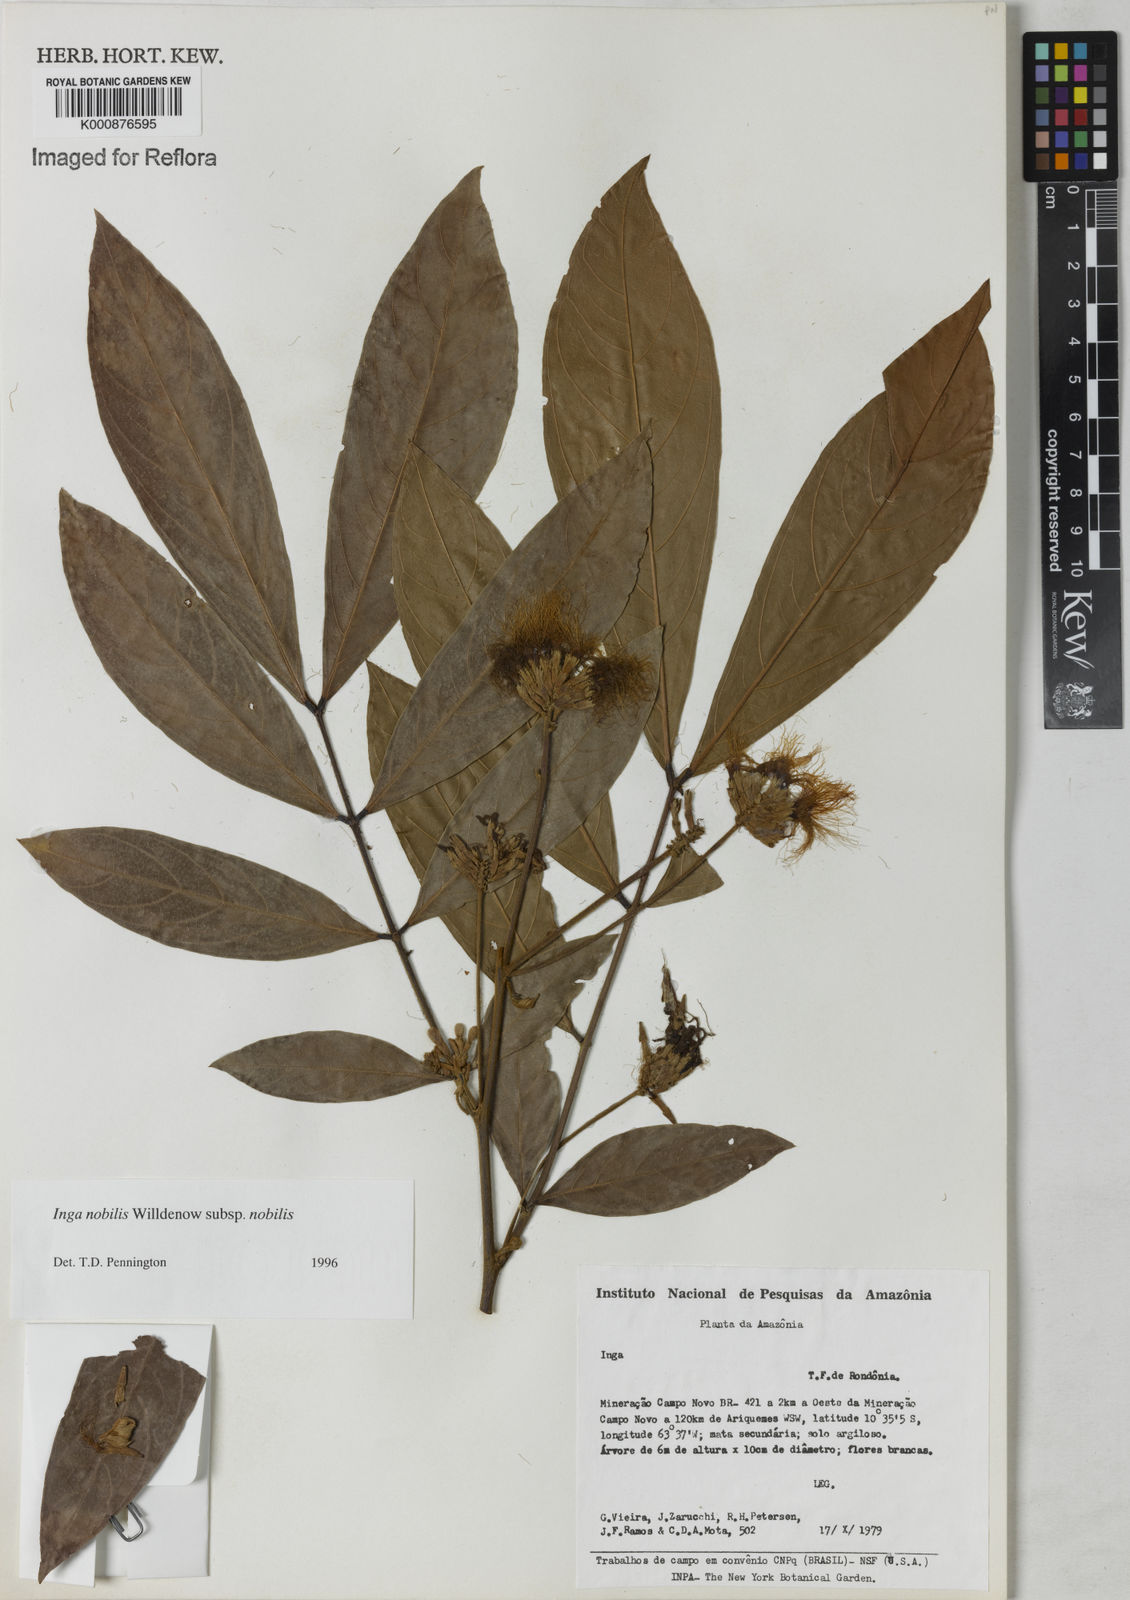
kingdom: Plantae
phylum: Tracheophyta
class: Magnoliopsida
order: Fabales
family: Fabaceae
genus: Inga
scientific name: Inga nobilis
